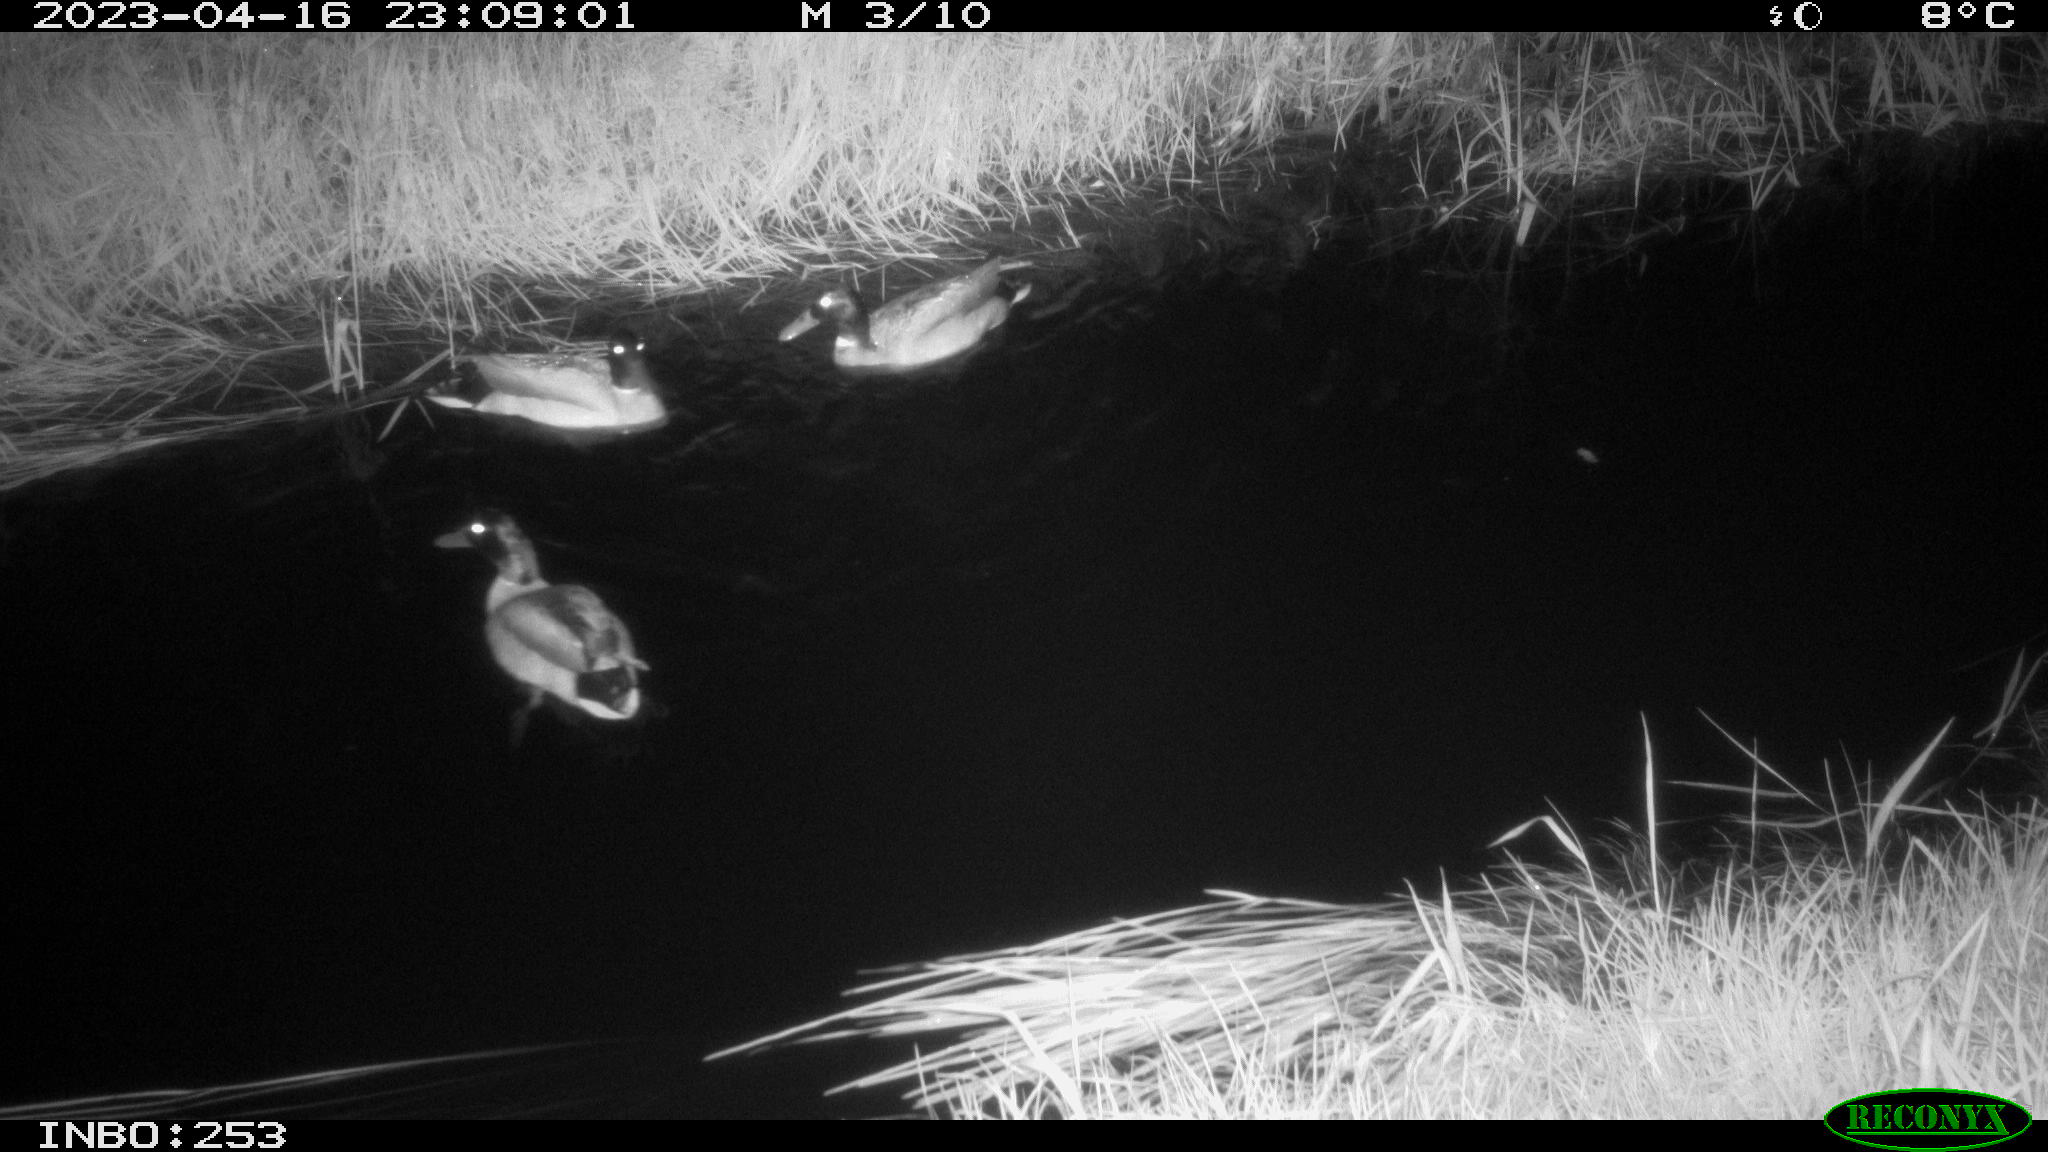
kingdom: Animalia
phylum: Chordata
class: Aves
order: Anseriformes
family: Anatidae
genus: Anas
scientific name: Anas
